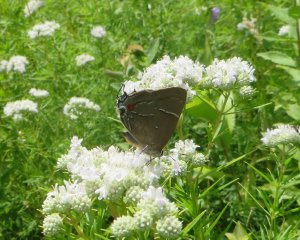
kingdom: Animalia
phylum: Arthropoda
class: Insecta
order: Lepidoptera
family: Lycaenidae
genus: Parrhasius
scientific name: Parrhasius m-album
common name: White-m Hairstreak
